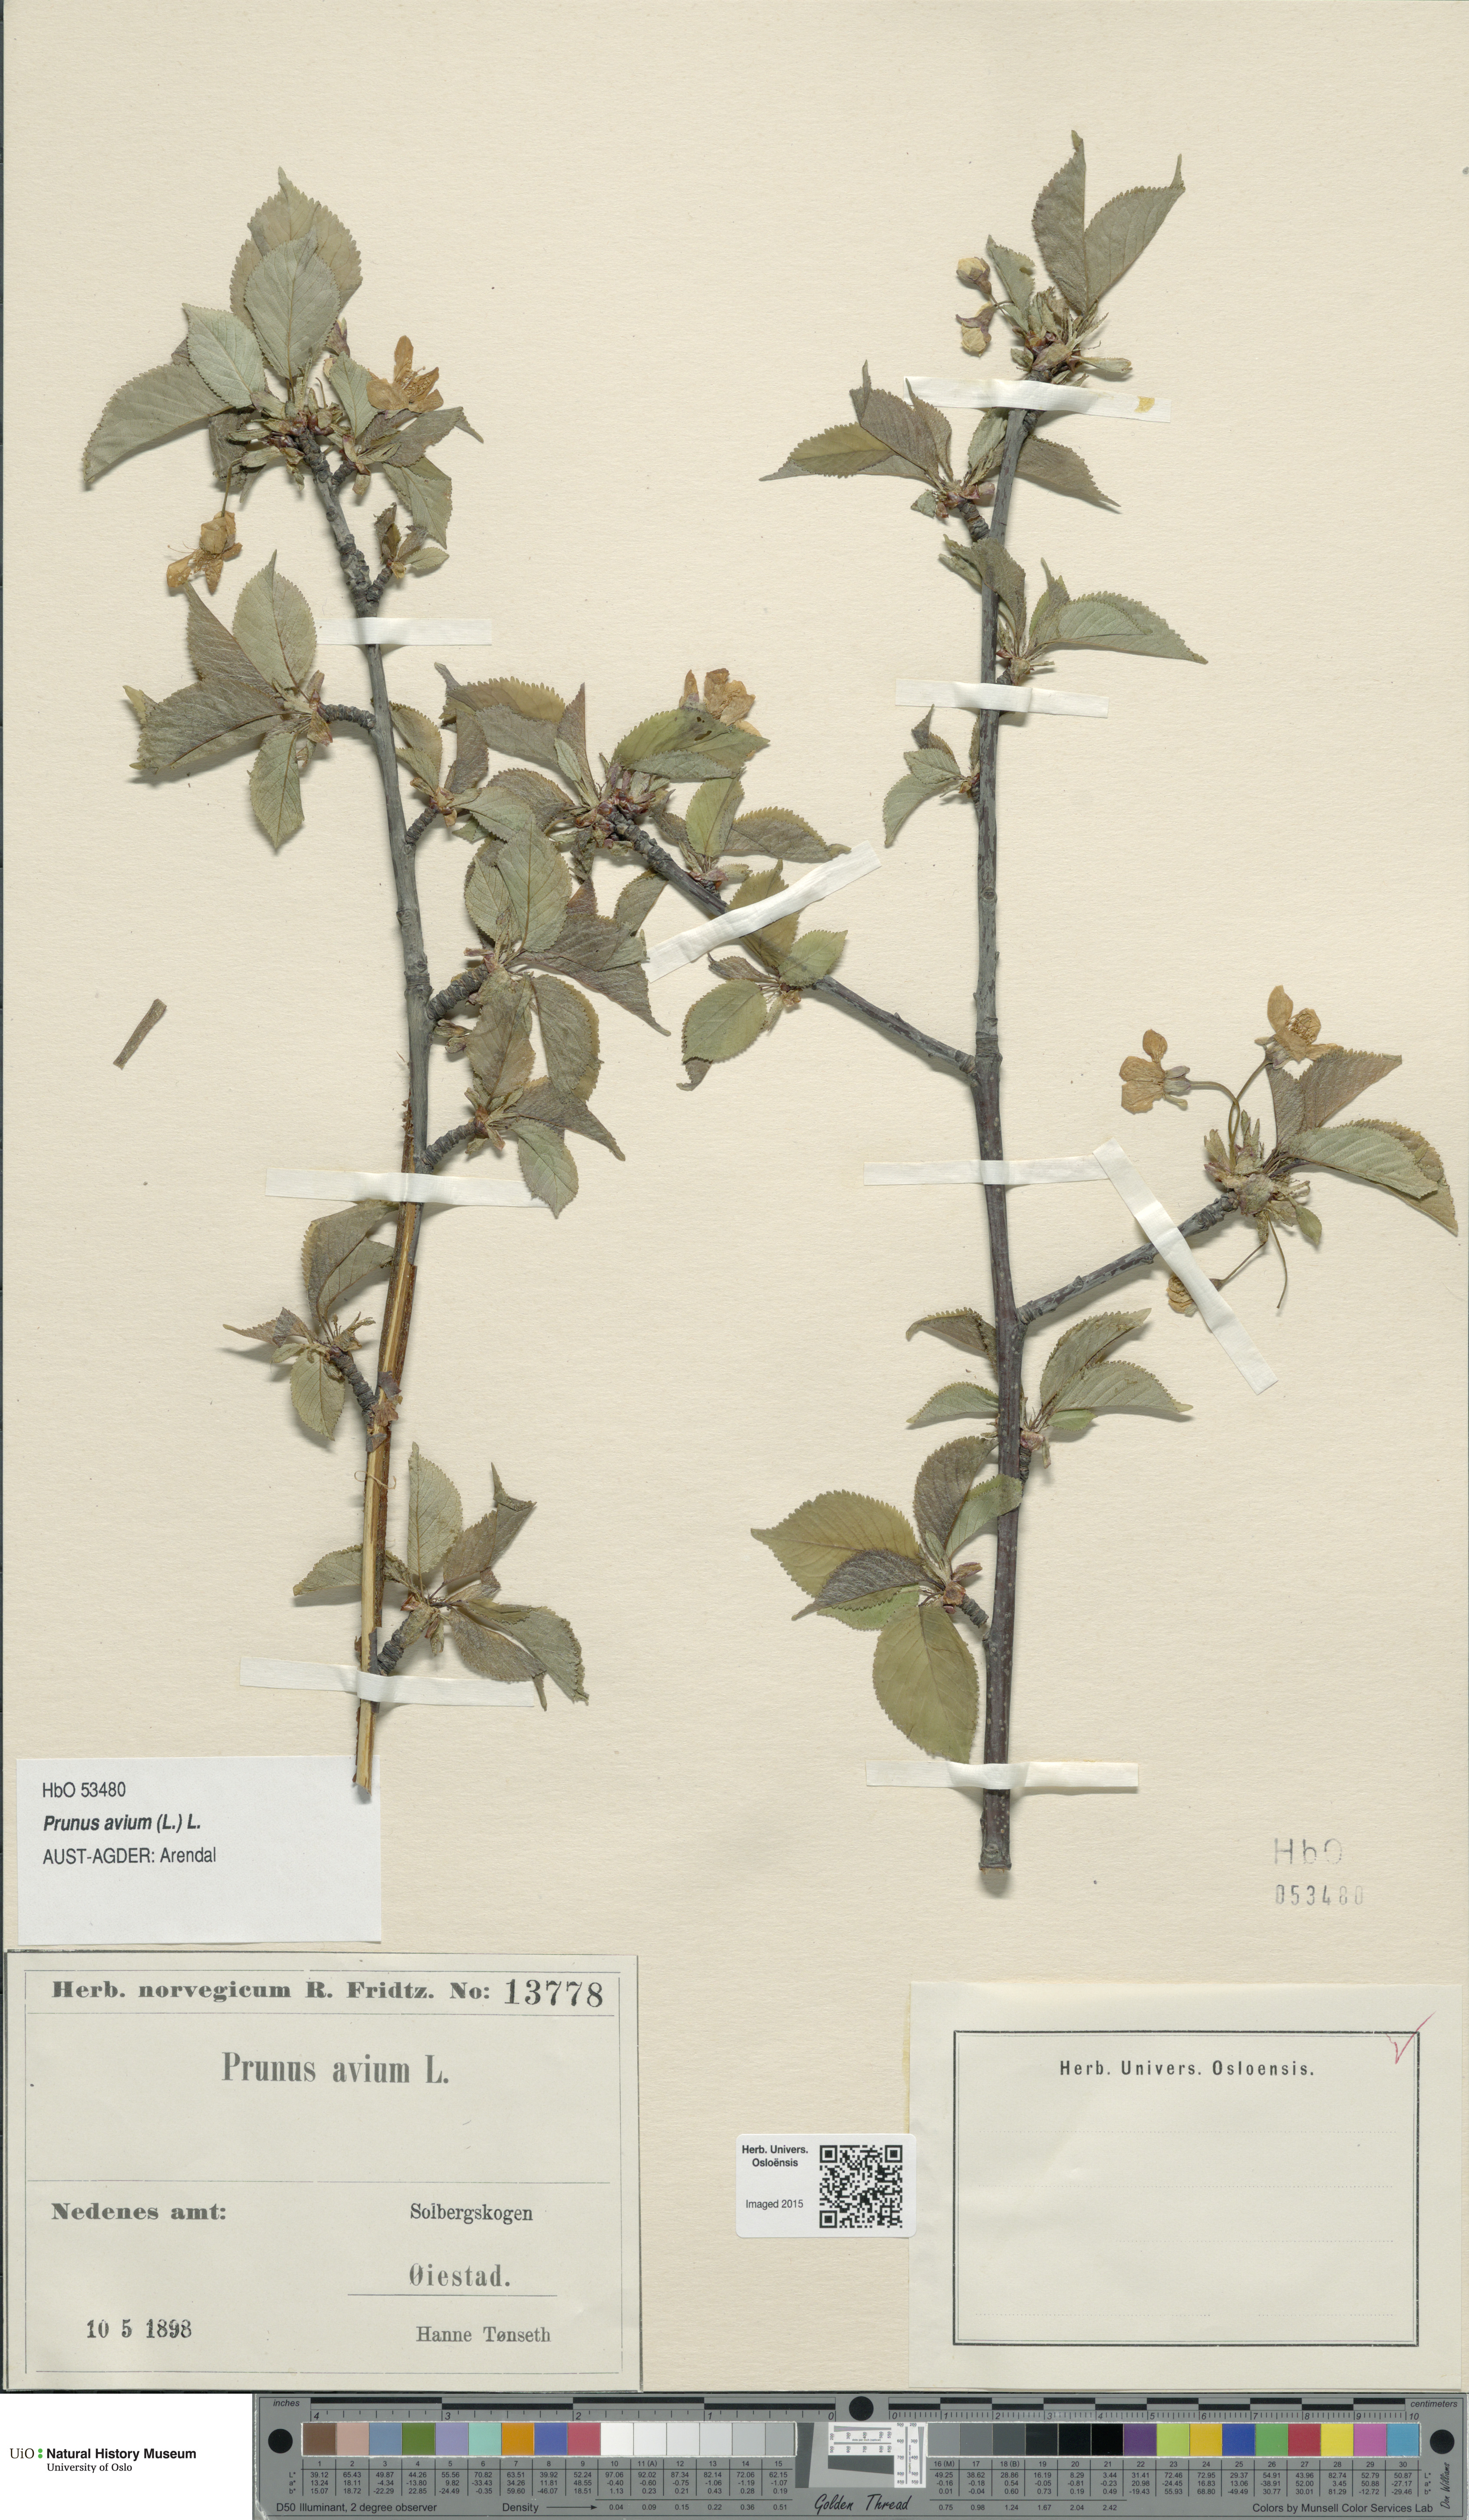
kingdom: Plantae
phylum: Tracheophyta
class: Magnoliopsida
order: Rosales
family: Rosaceae
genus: Prunus
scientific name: Prunus avium
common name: Sweet cherry
